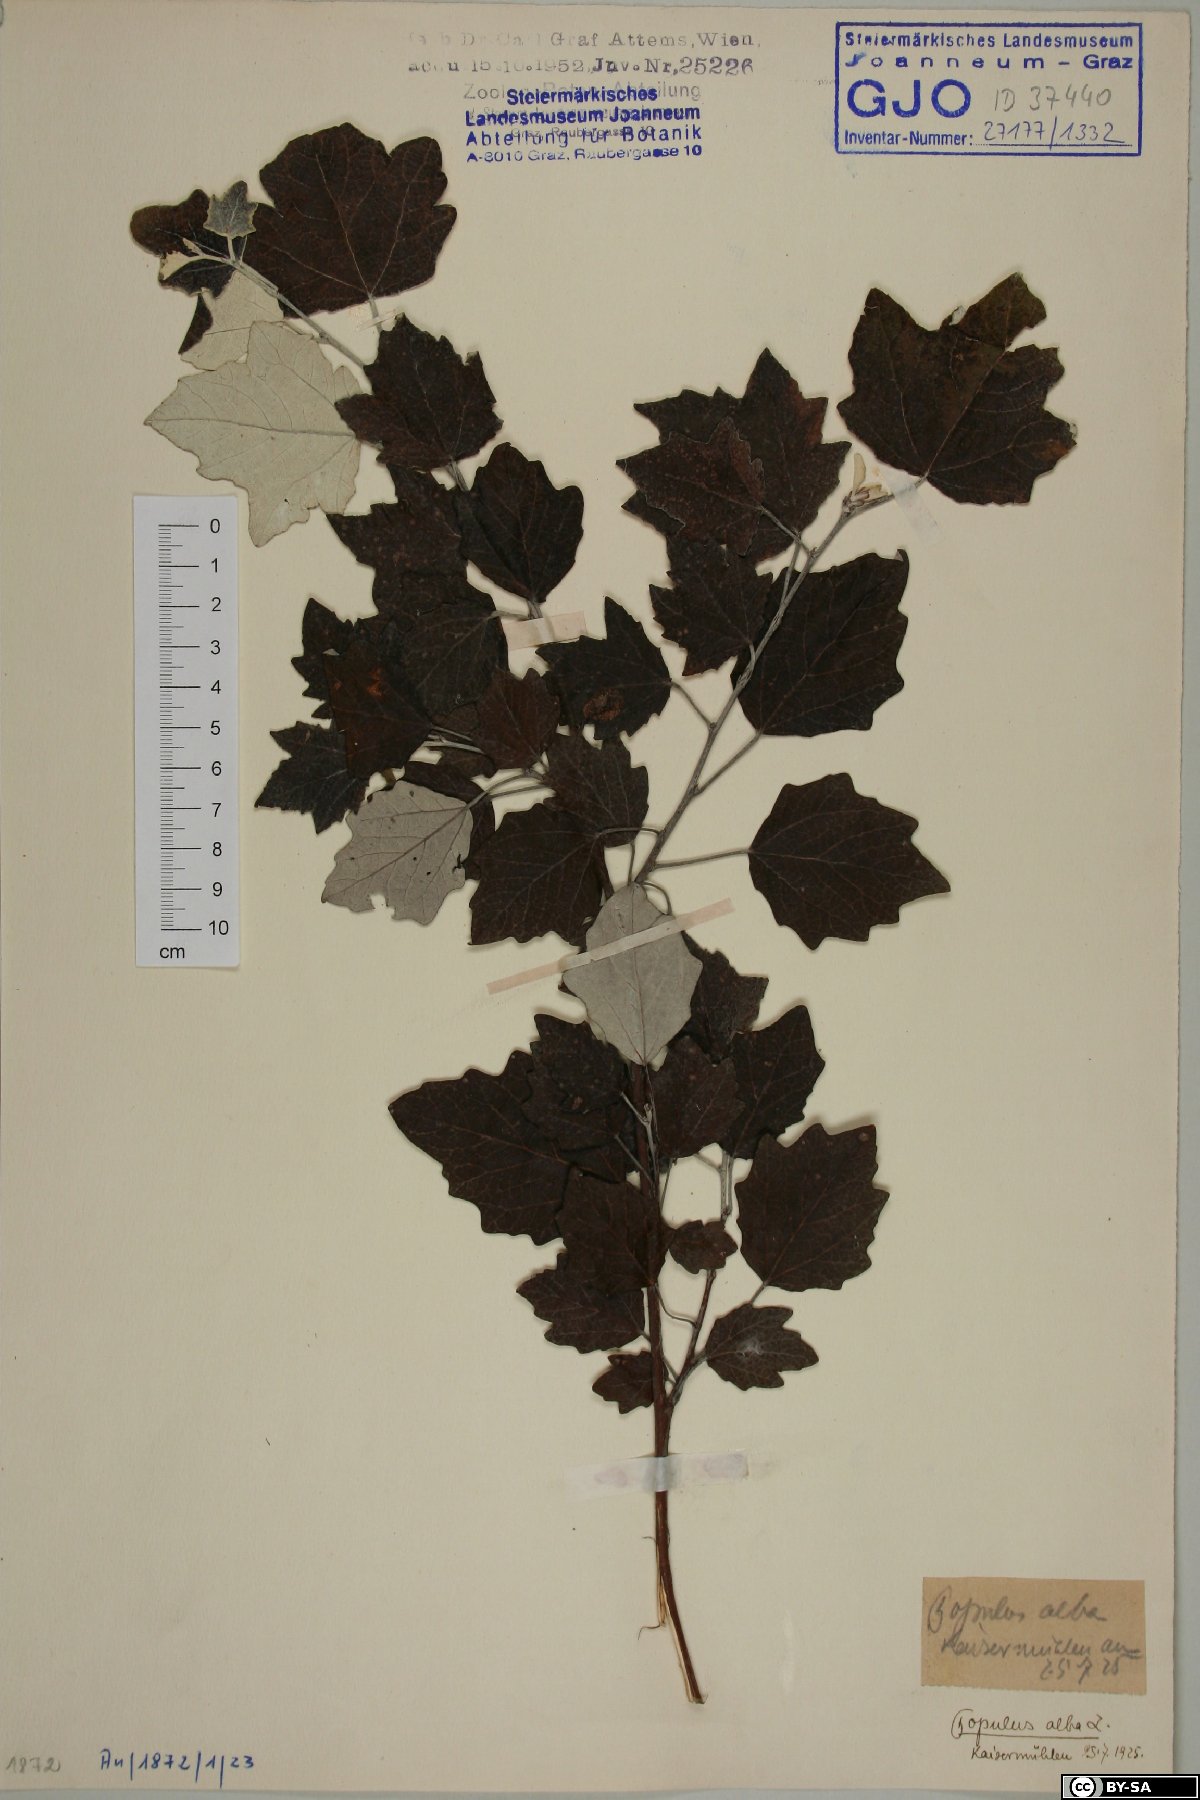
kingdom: Plantae
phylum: Tracheophyta
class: Magnoliopsida
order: Malpighiales
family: Salicaceae
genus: Populus
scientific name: Populus alba
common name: White poplar
